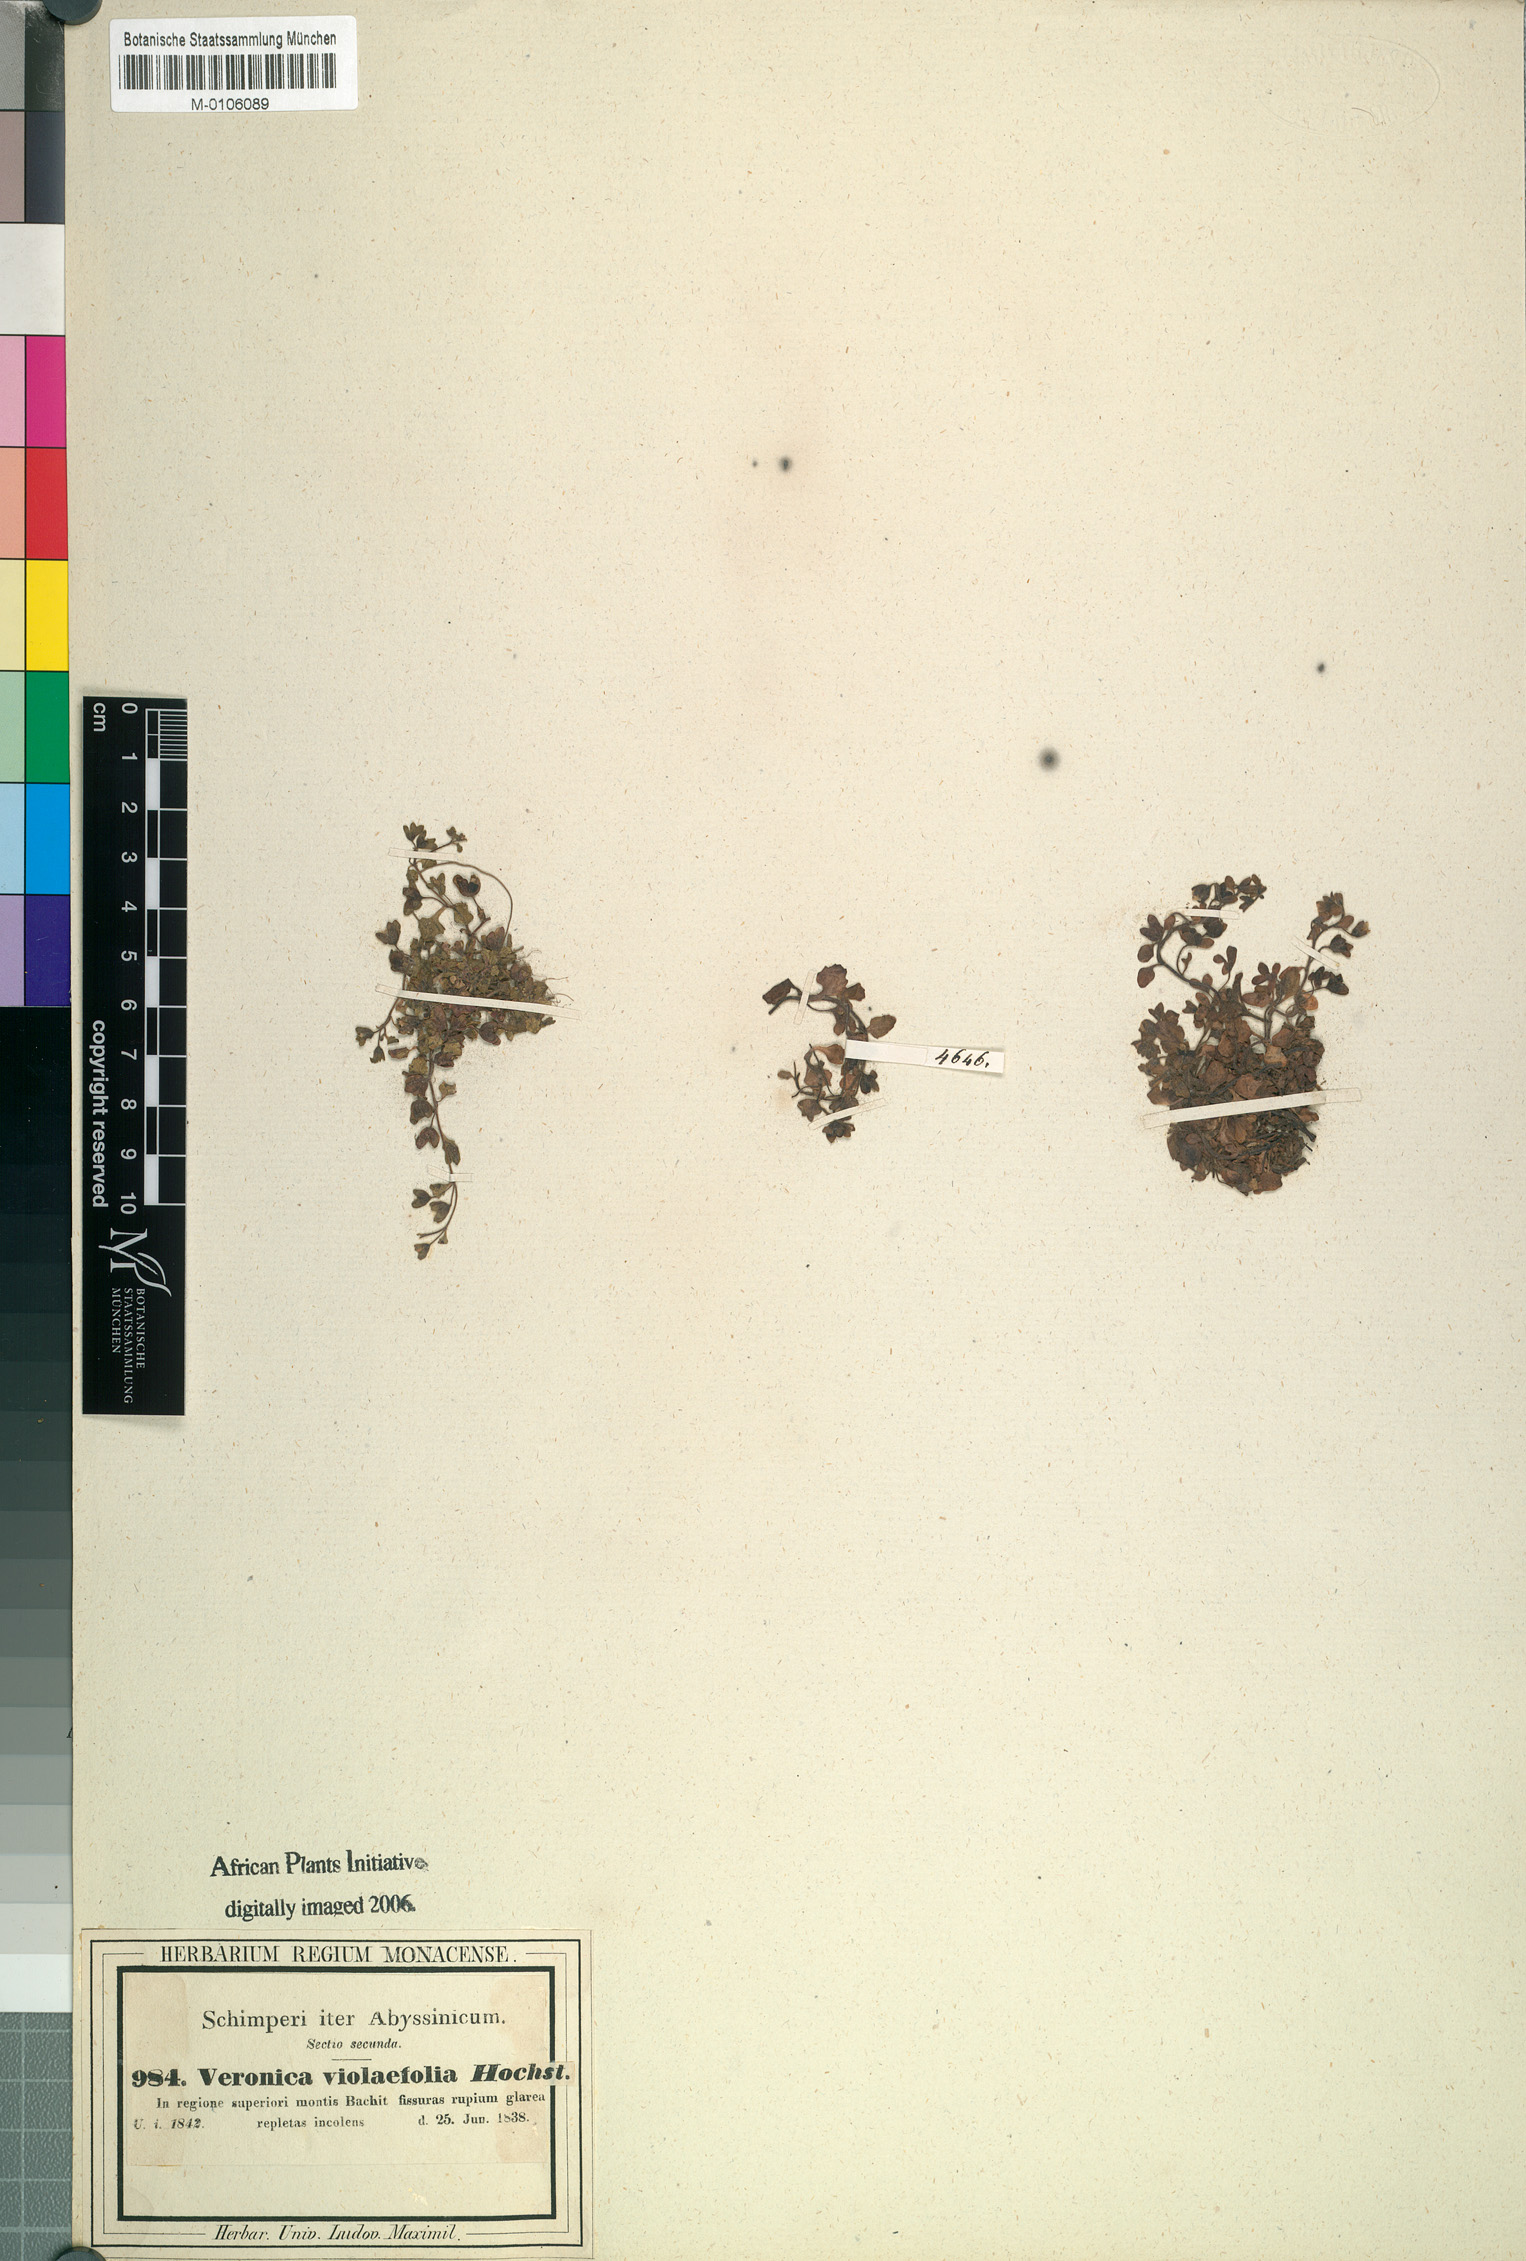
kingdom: Plantae
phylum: Tracheophyta
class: Magnoliopsida
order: Lamiales
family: Plantaginaceae
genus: Veronica
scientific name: Veronica violaefolia
